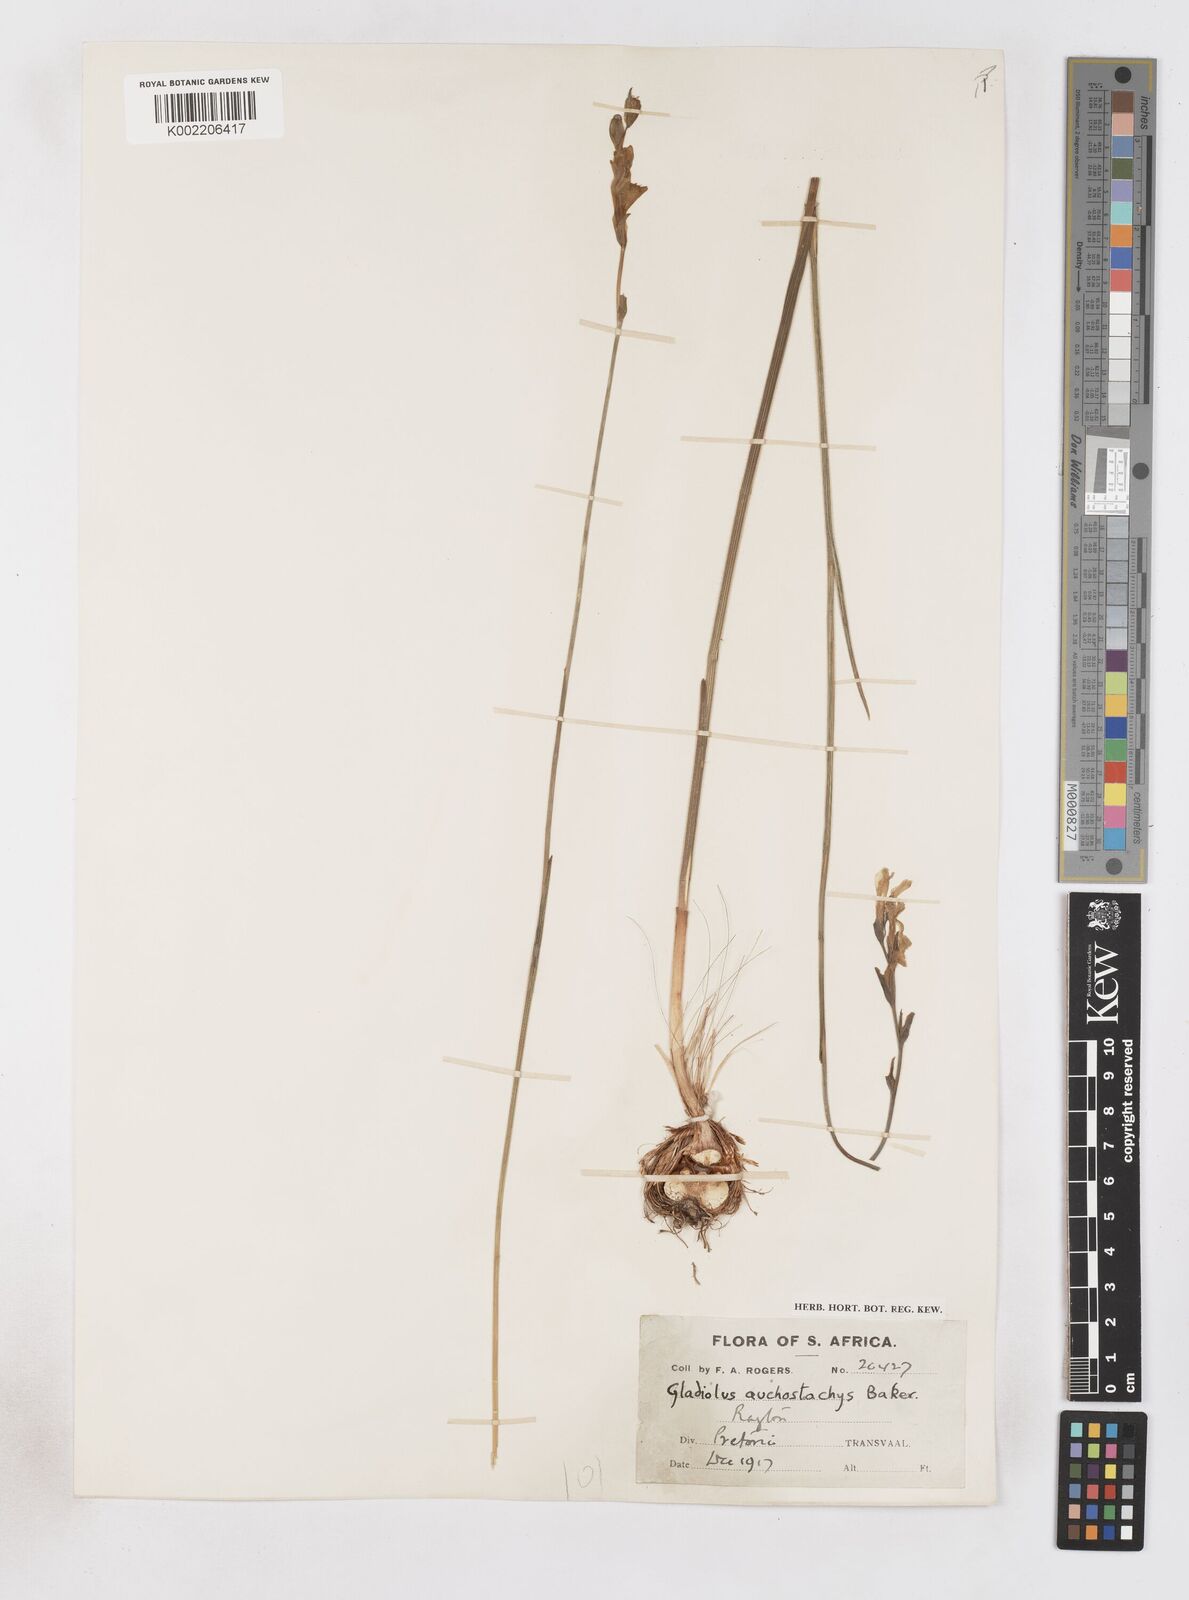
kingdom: Plantae
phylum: Tracheophyta
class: Liliopsida
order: Asparagales
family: Iridaceae
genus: Gladiolus
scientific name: Gladiolus woodii
